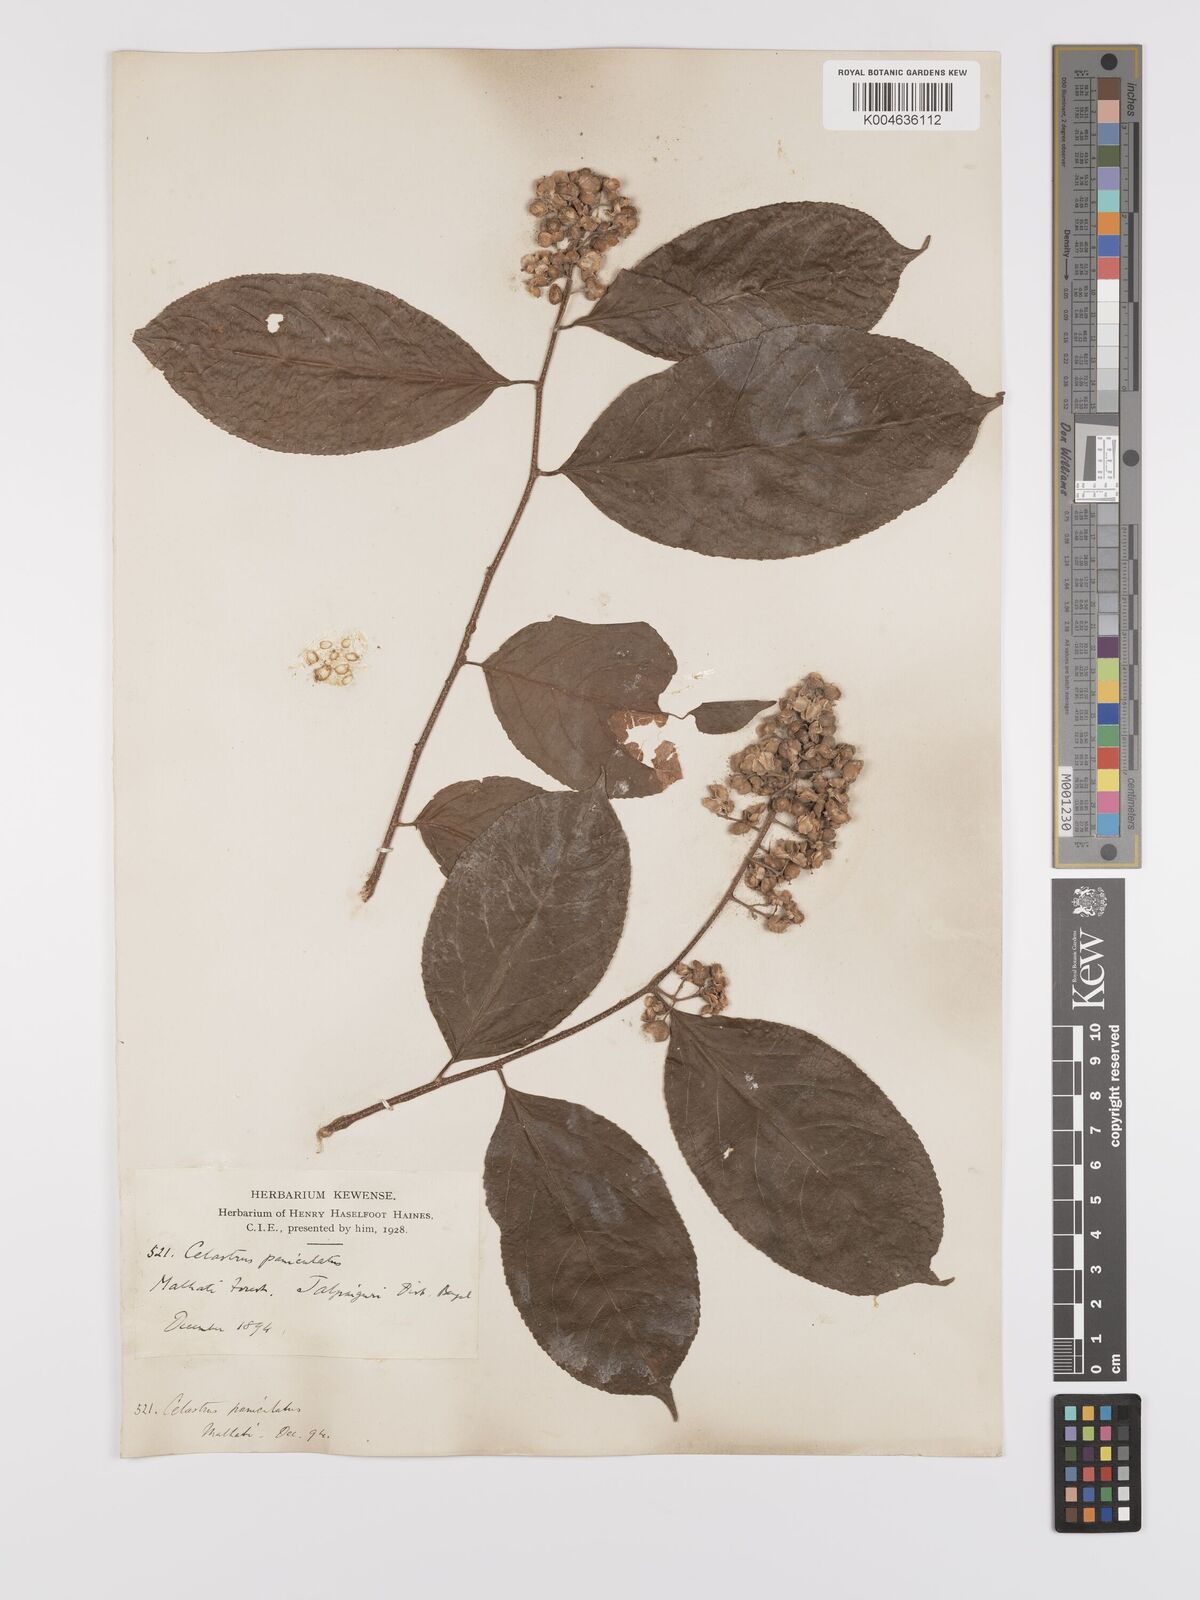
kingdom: Plantae
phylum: Tracheophyta
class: Magnoliopsida
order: Celastrales
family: Celastraceae
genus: Celastrus
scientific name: Celastrus
